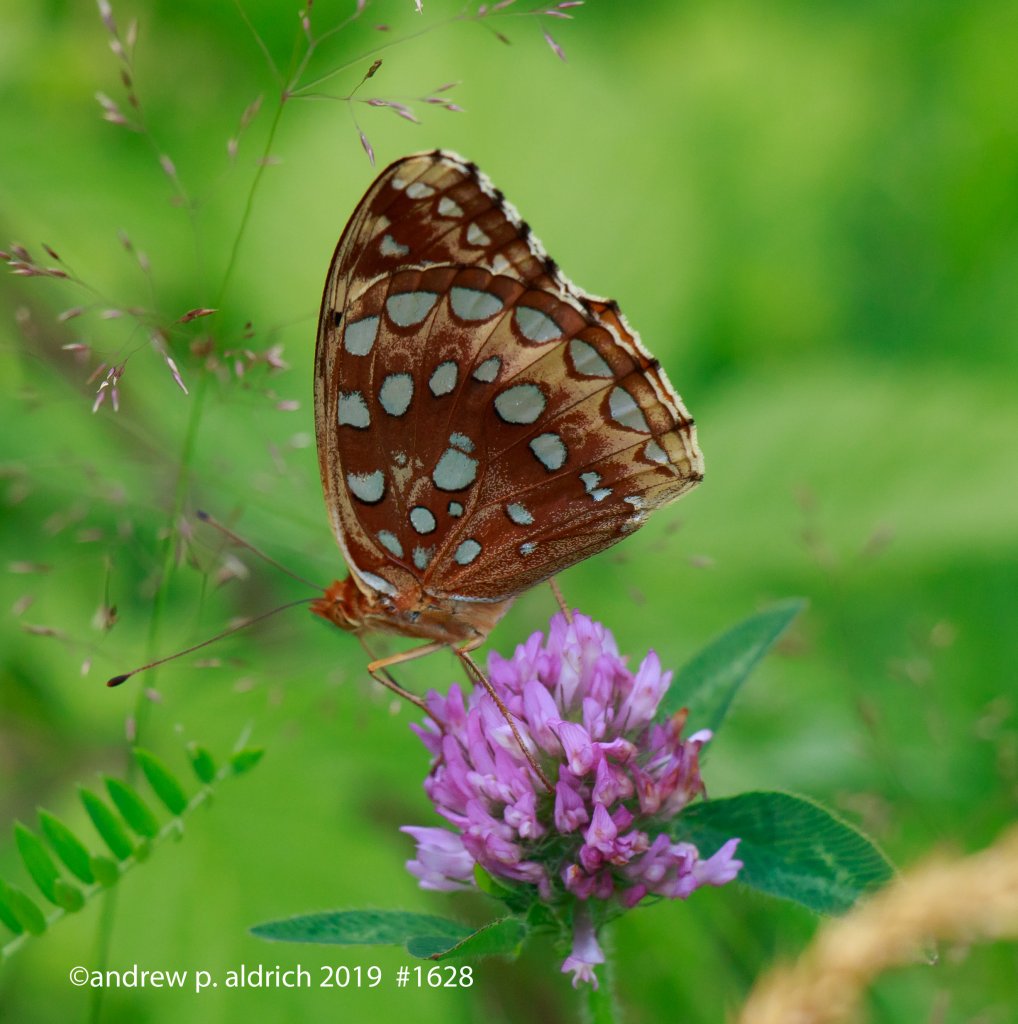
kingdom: Animalia
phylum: Arthropoda
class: Insecta
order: Lepidoptera
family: Nymphalidae
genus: Speyeria
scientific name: Speyeria cybele
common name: Great Spangled Fritillary
